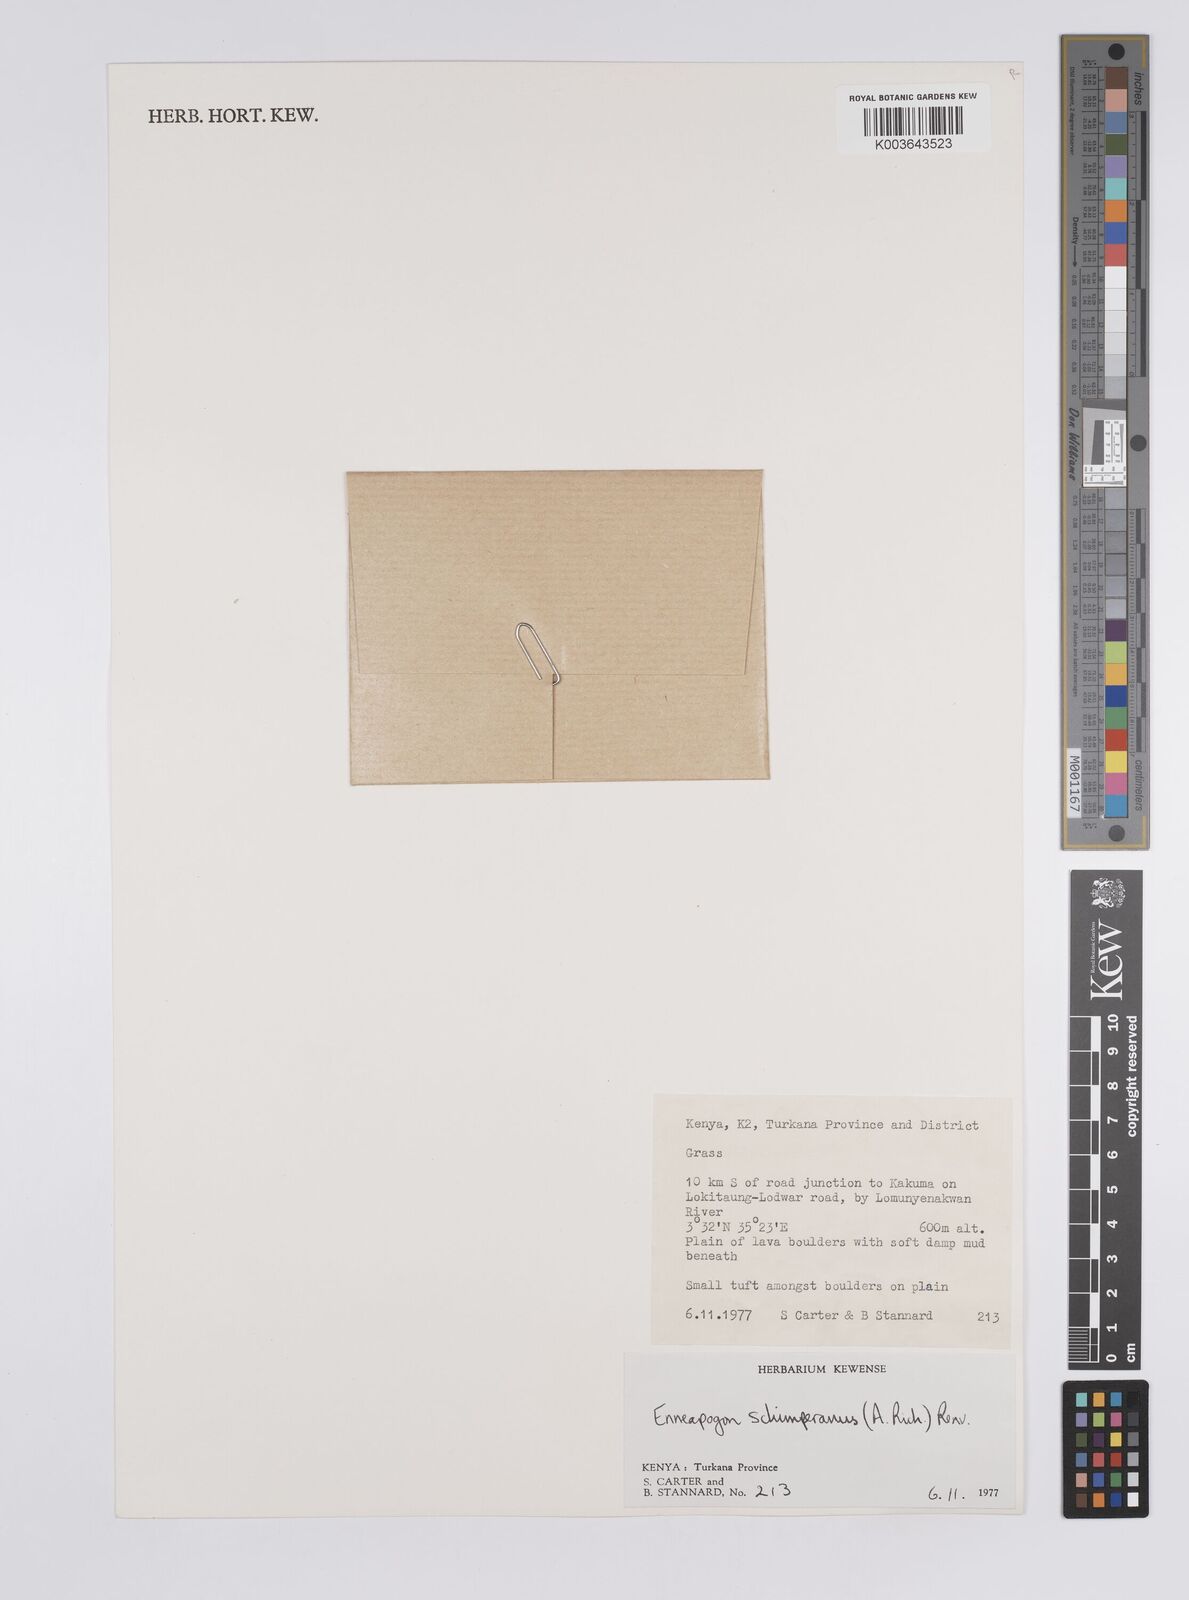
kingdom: Plantae
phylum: Tracheophyta
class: Liliopsida
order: Poales
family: Poaceae
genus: Enneapogon
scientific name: Enneapogon lophotrichus
